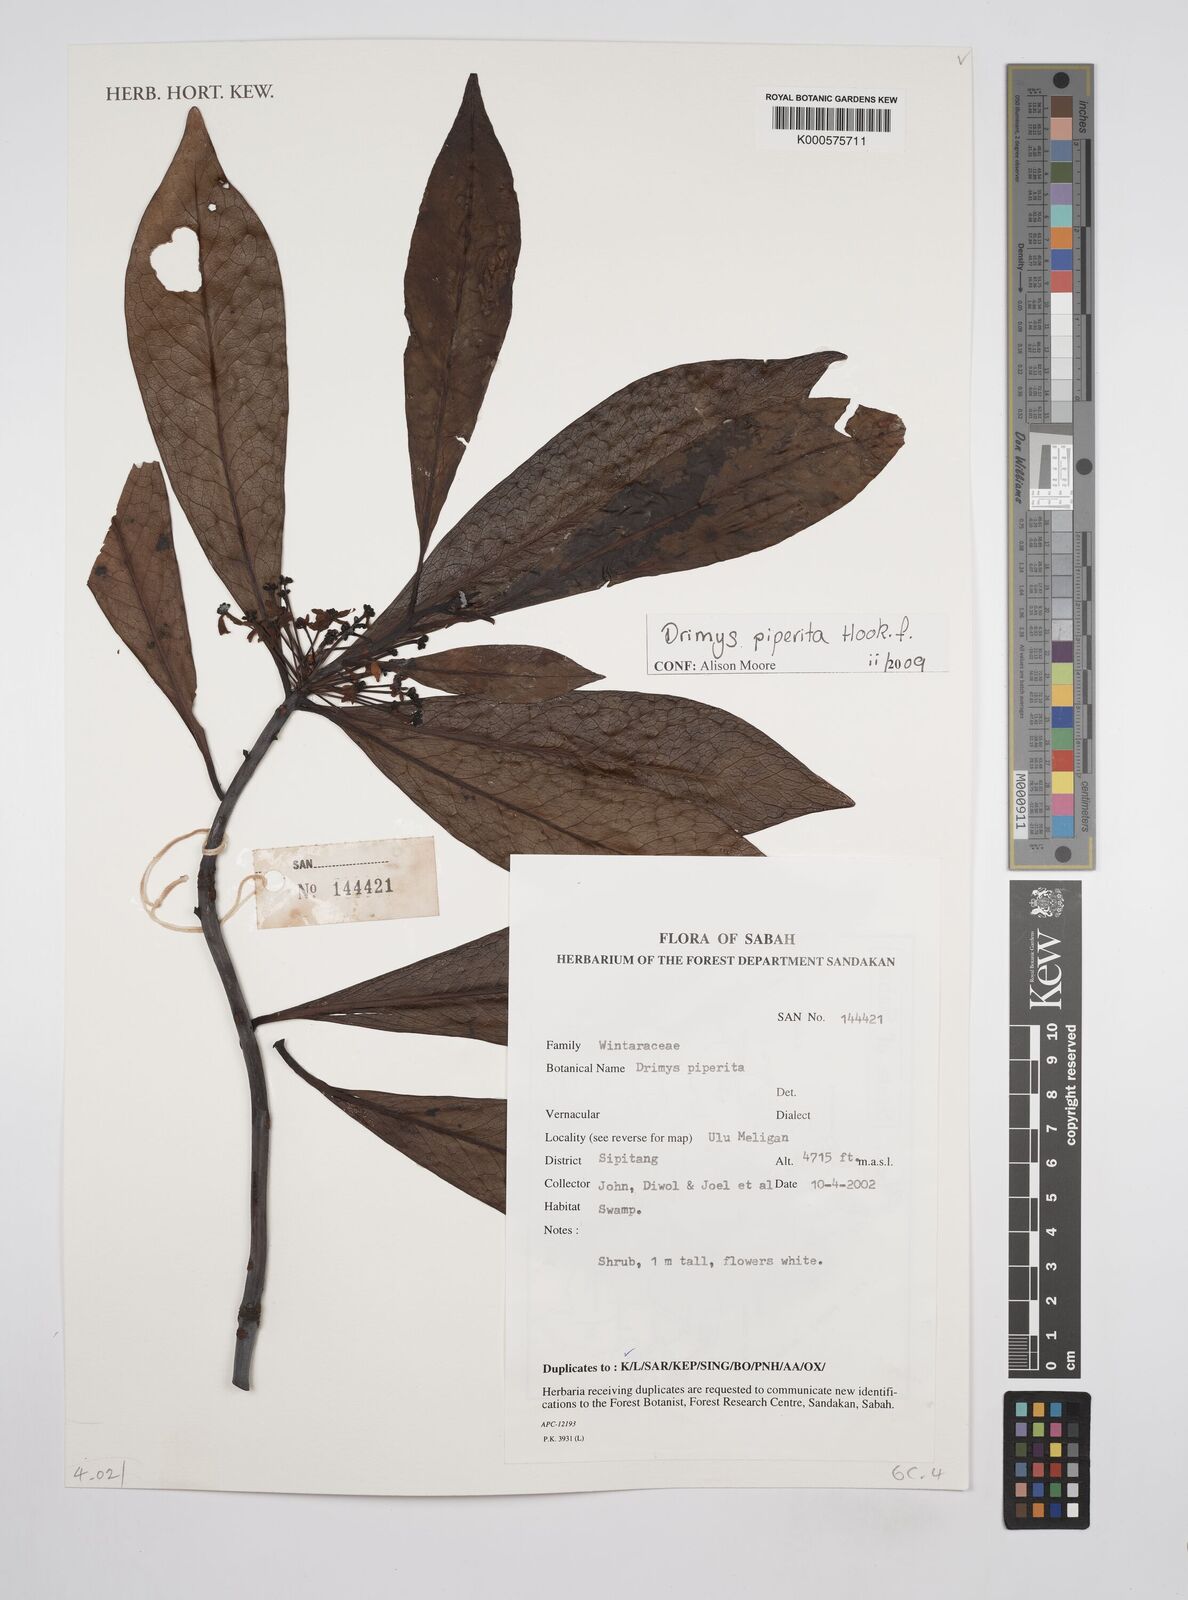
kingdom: Plantae
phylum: Tracheophyta
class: Magnoliopsida
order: Canellales
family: Winteraceae
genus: Drimys
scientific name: Drimys piperita
